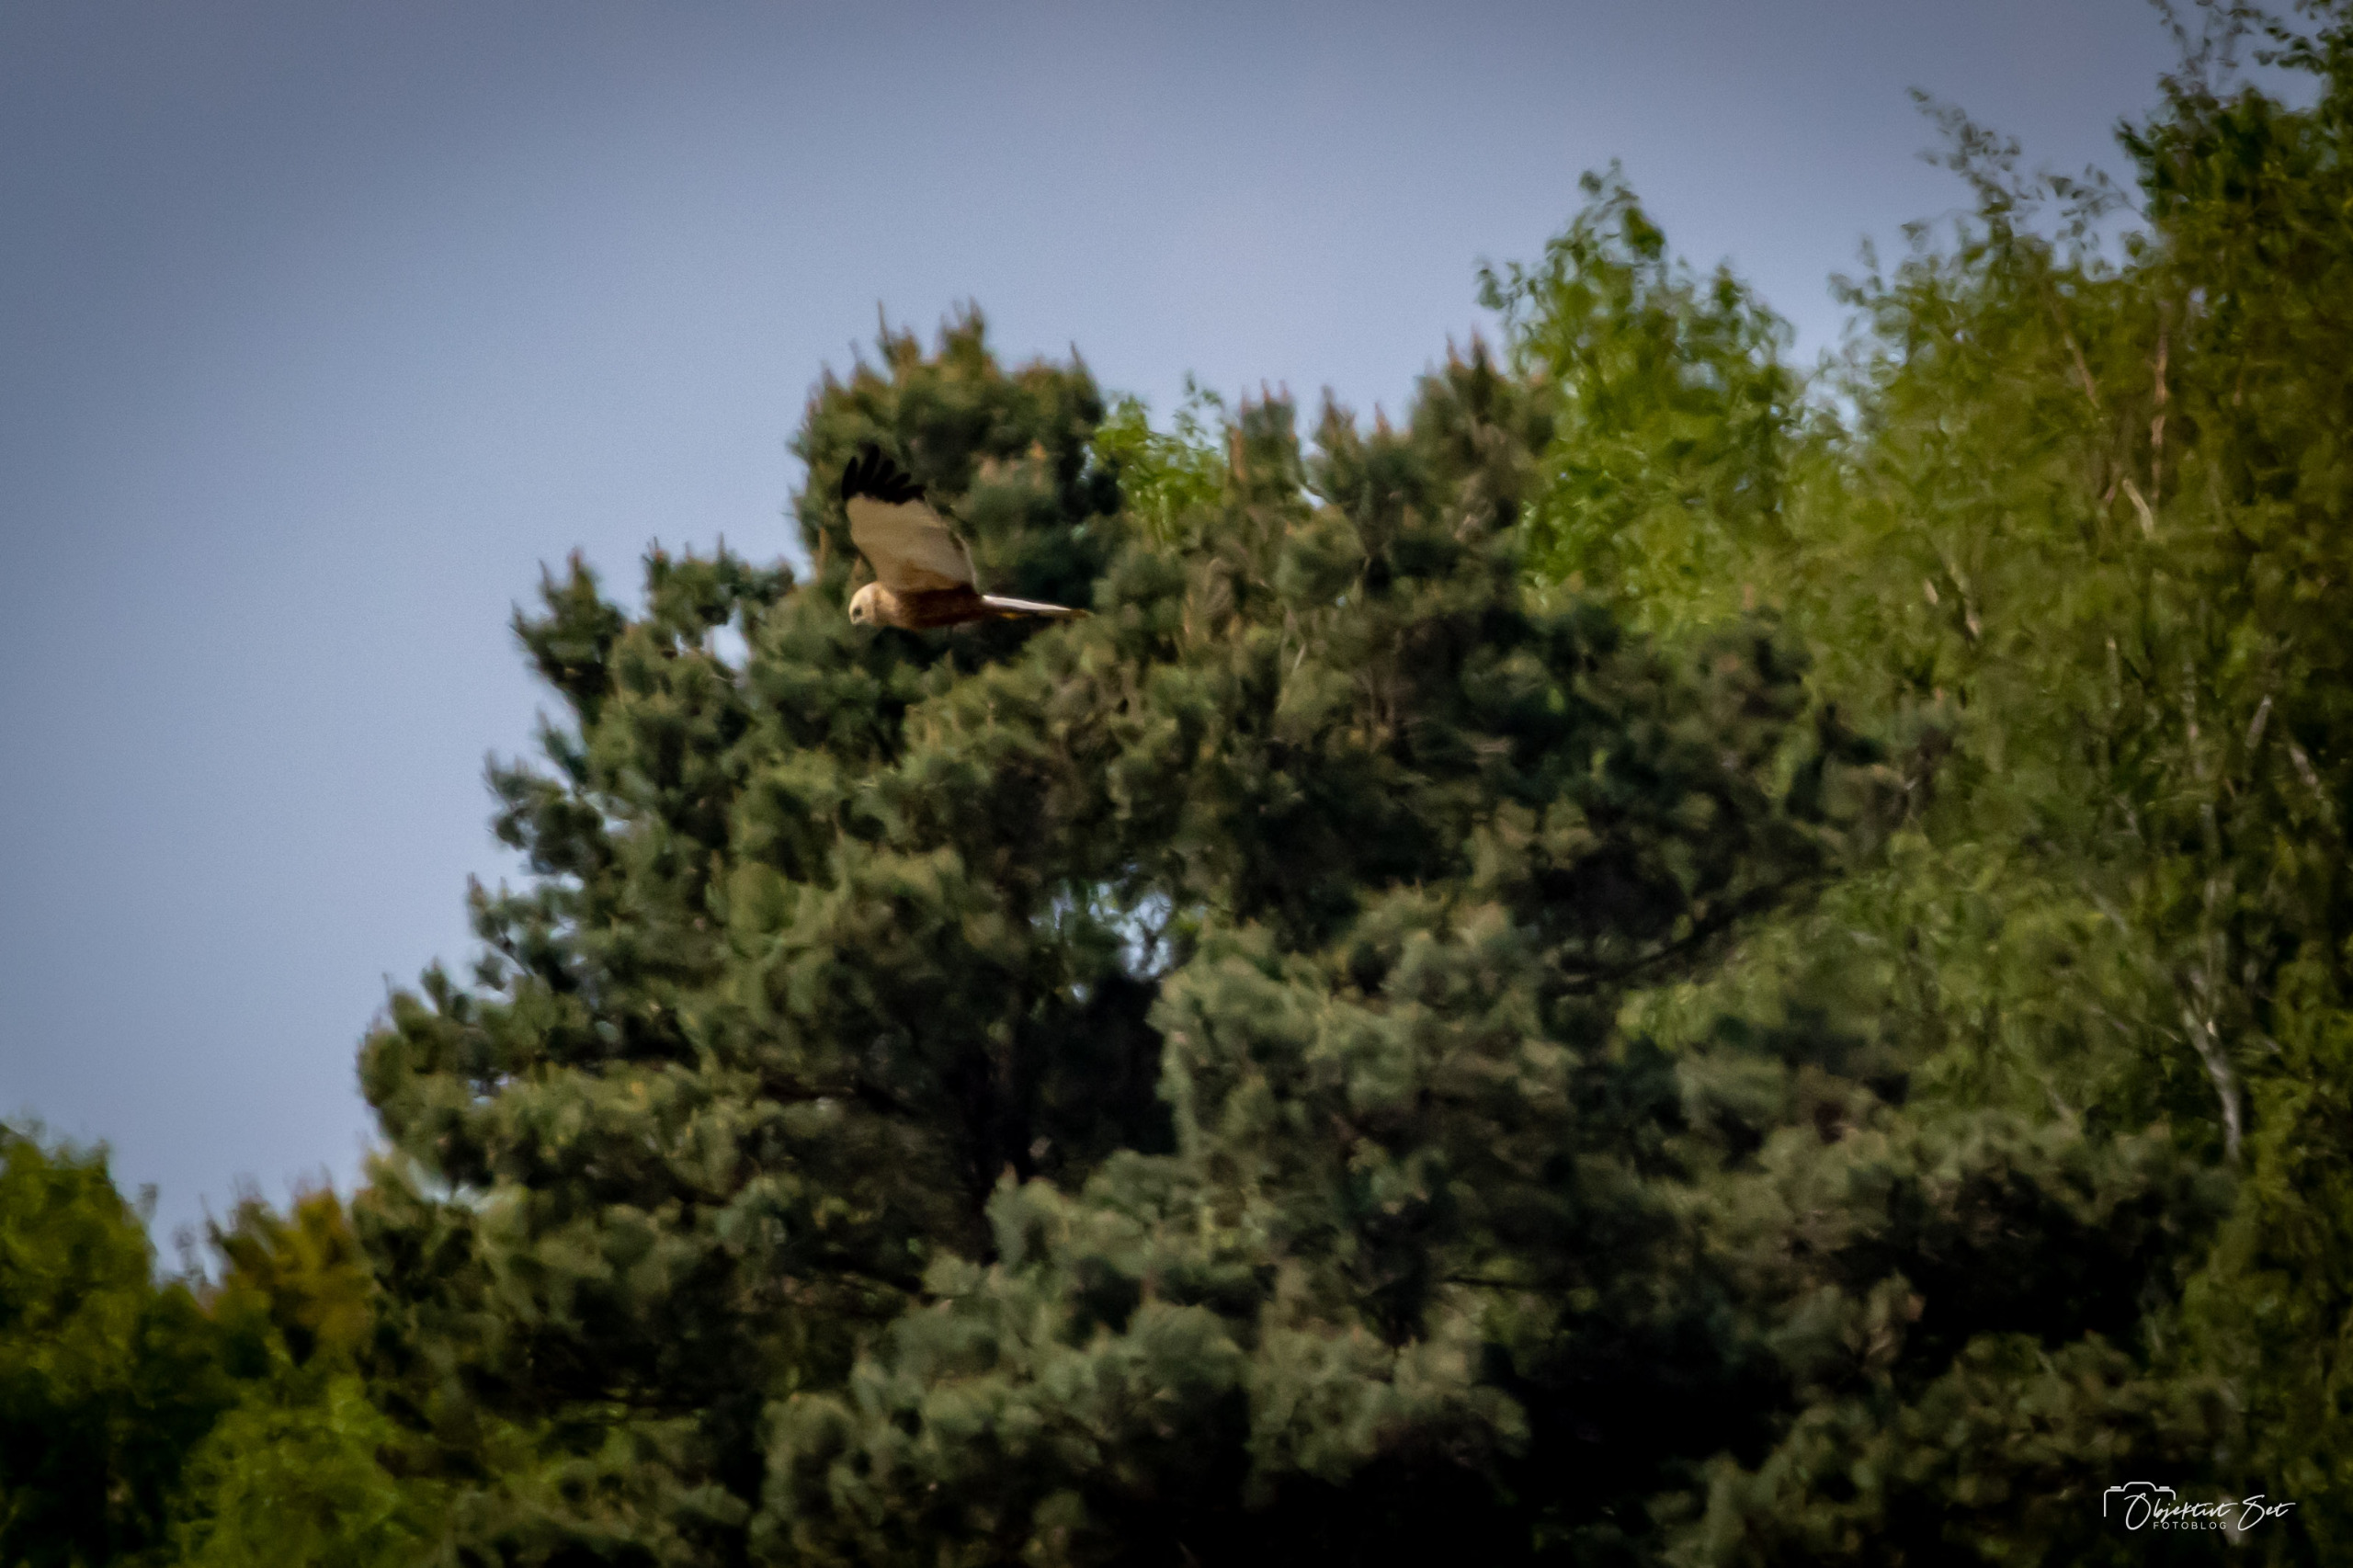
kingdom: Animalia
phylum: Chordata
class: Aves
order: Accipitriformes
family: Accipitridae
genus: Circus
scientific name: Circus aeruginosus
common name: Rørhøg
